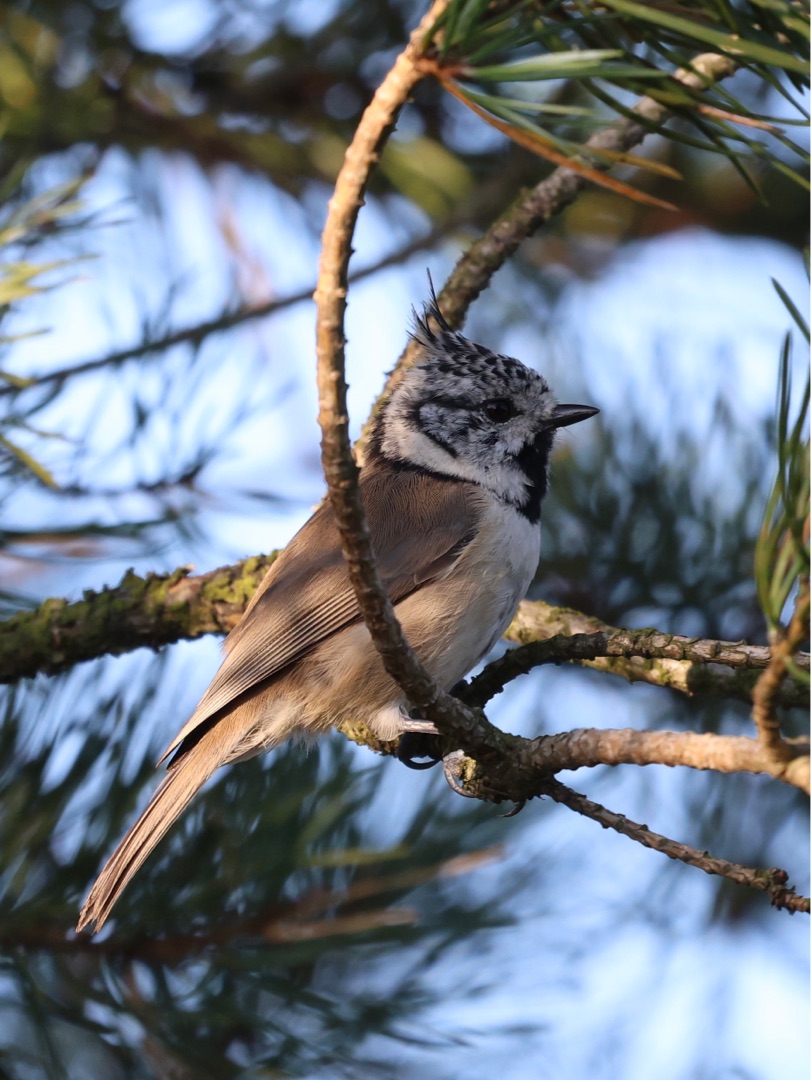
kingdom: Animalia
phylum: Chordata
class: Aves
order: Passeriformes
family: Paridae
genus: Lophophanes
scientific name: Lophophanes cristatus
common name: Topmejse
